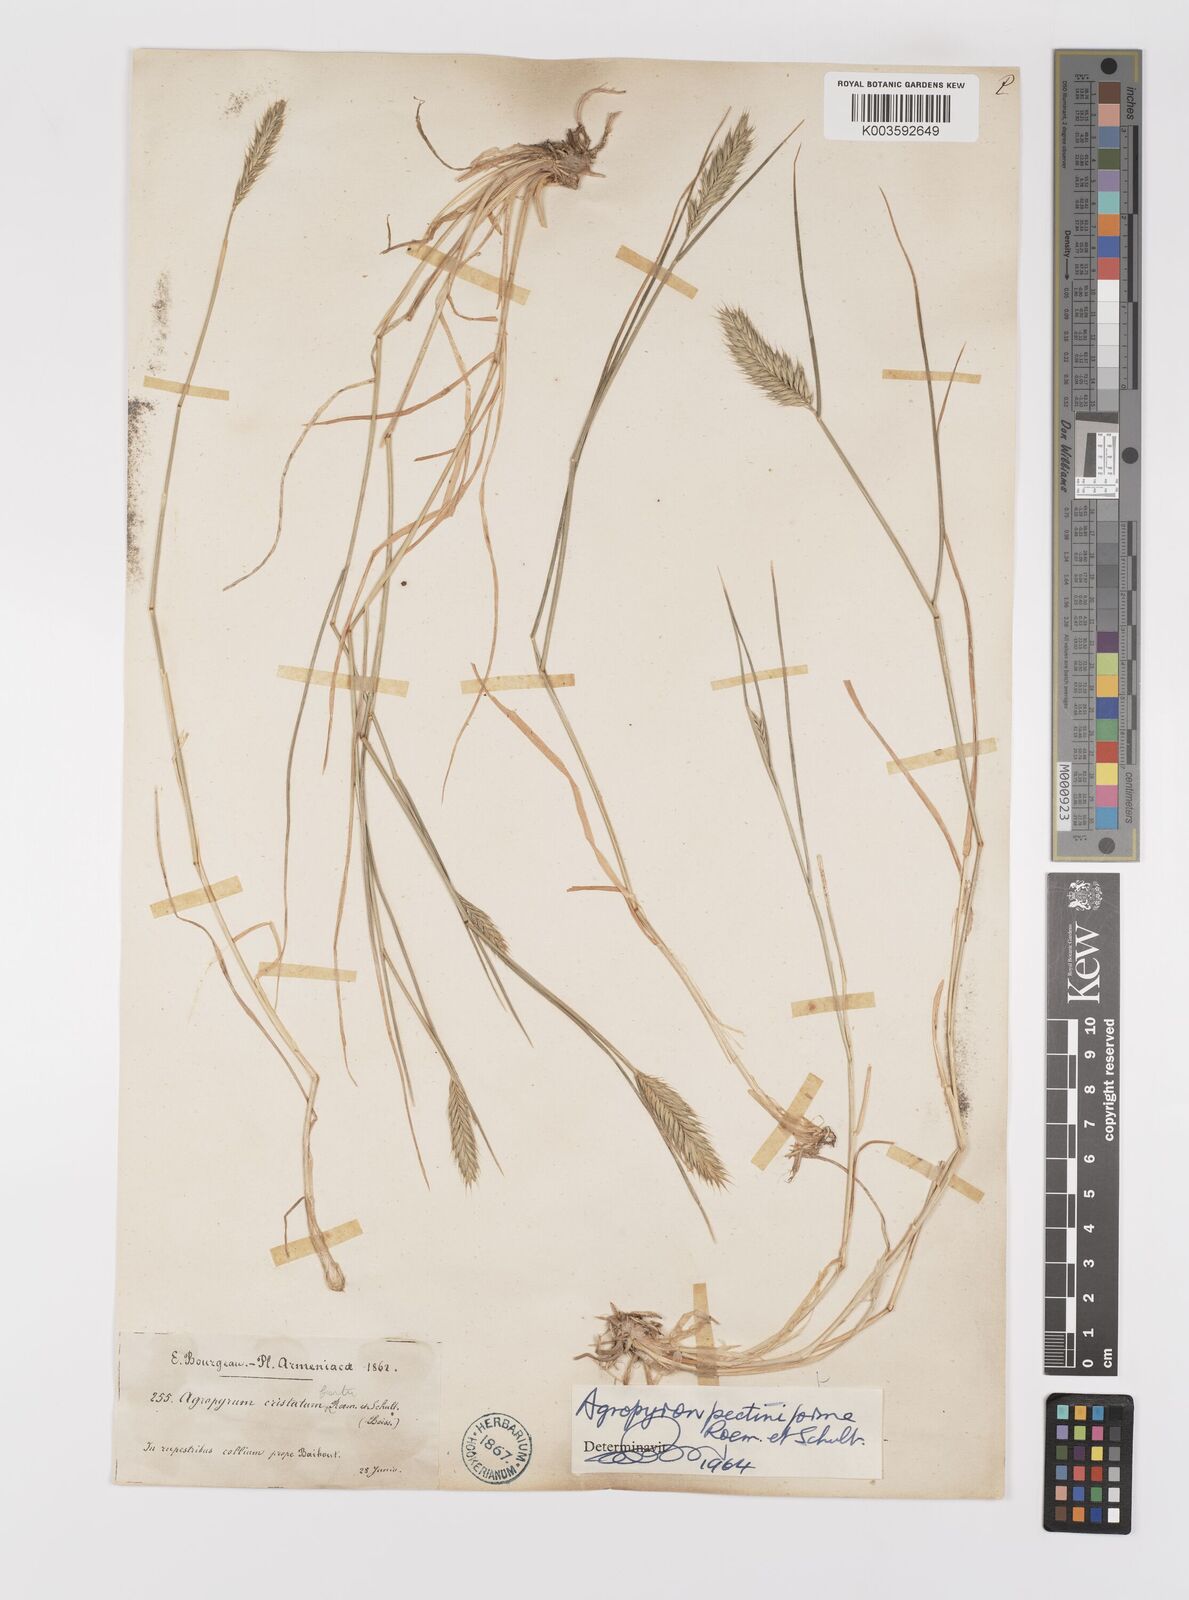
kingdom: Plantae
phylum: Tracheophyta
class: Liliopsida
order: Poales
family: Poaceae
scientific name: Poaceae
